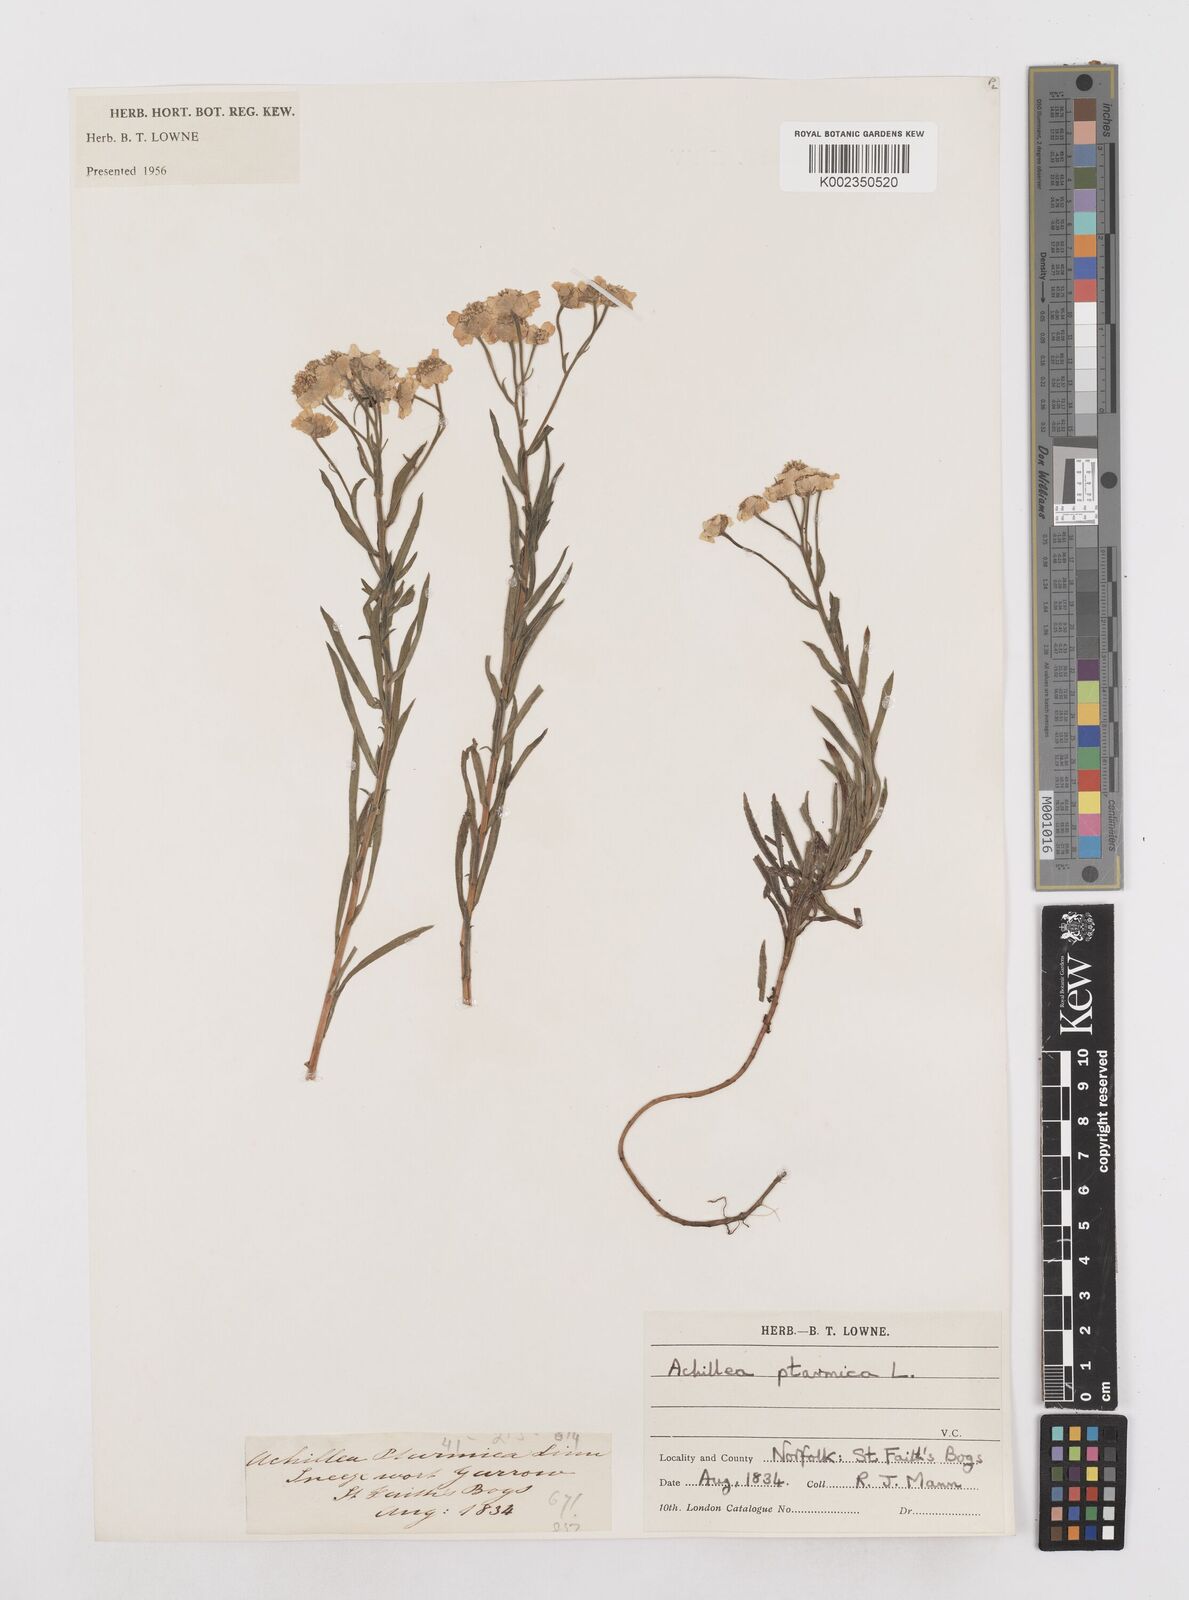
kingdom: Plantae
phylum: Tracheophyta
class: Magnoliopsida
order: Asterales
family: Asteraceae
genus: Achillea
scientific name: Achillea ptarmica
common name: Sneezeweed
